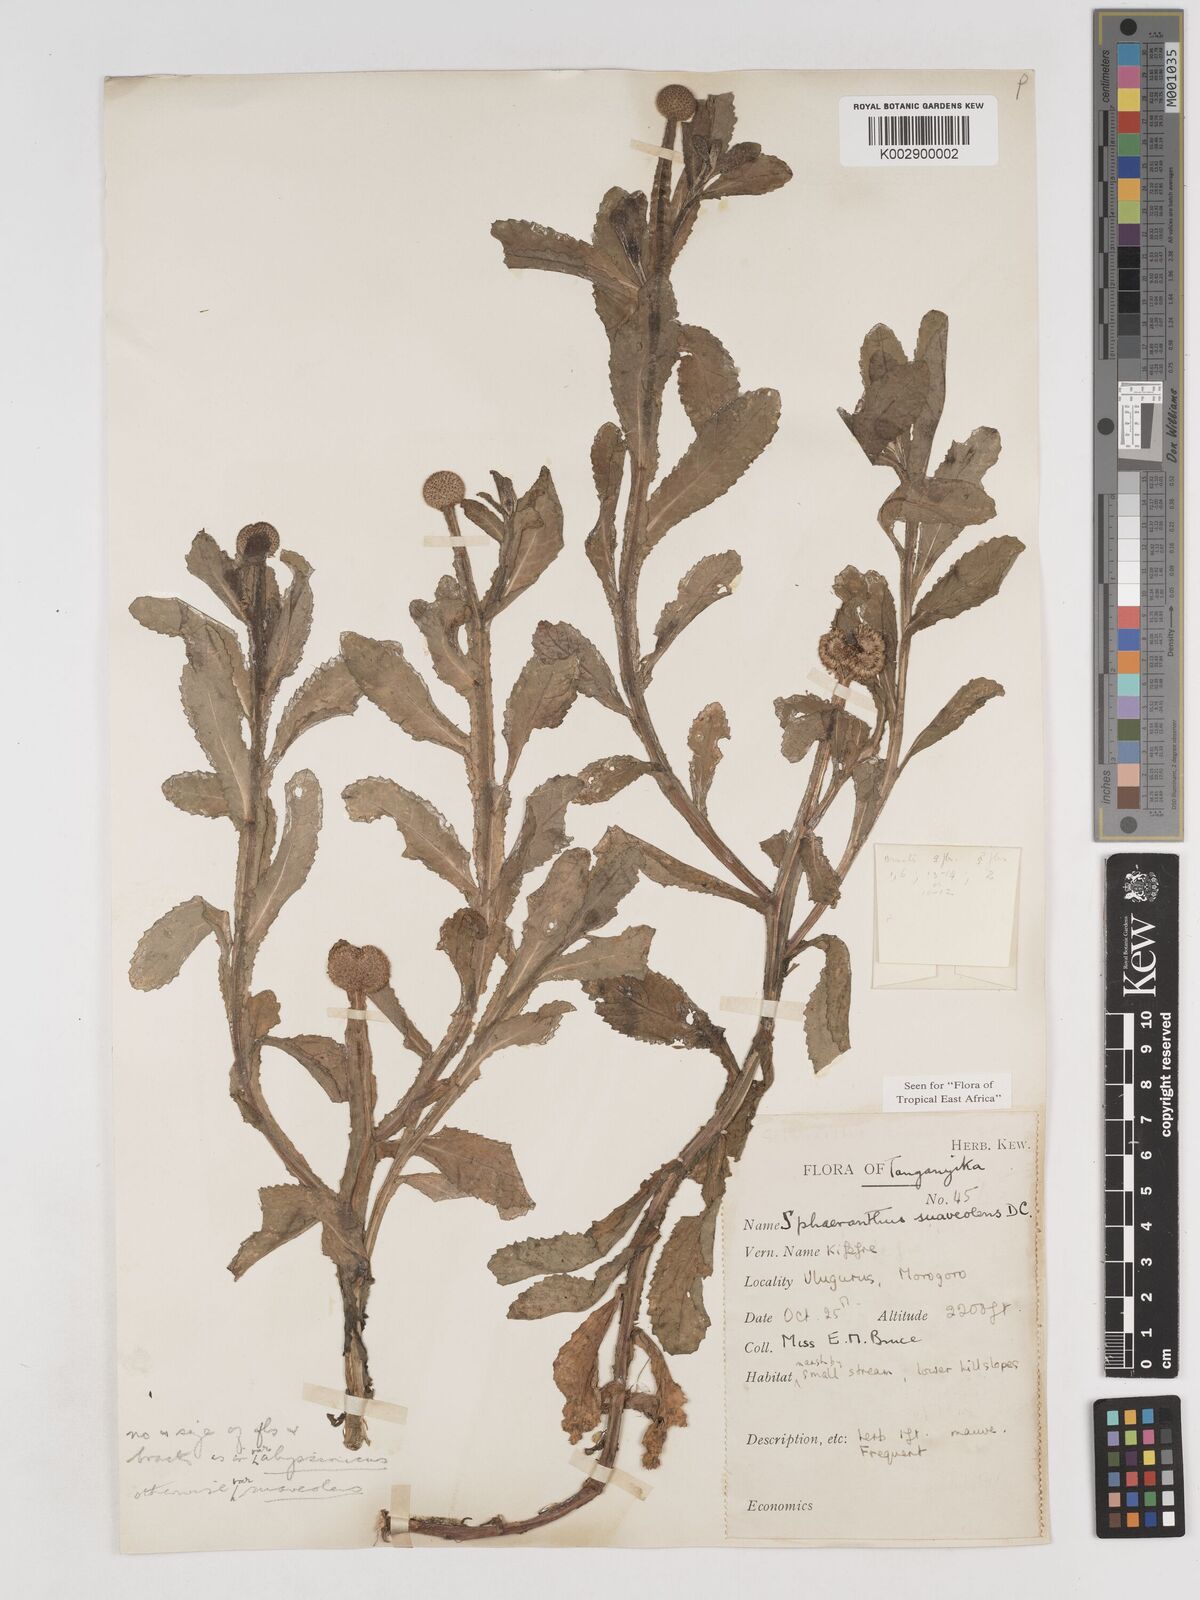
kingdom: Plantae
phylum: Tracheophyta
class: Magnoliopsida
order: Asterales
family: Asteraceae
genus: Sphaeranthus
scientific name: Sphaeranthus suaveolens
